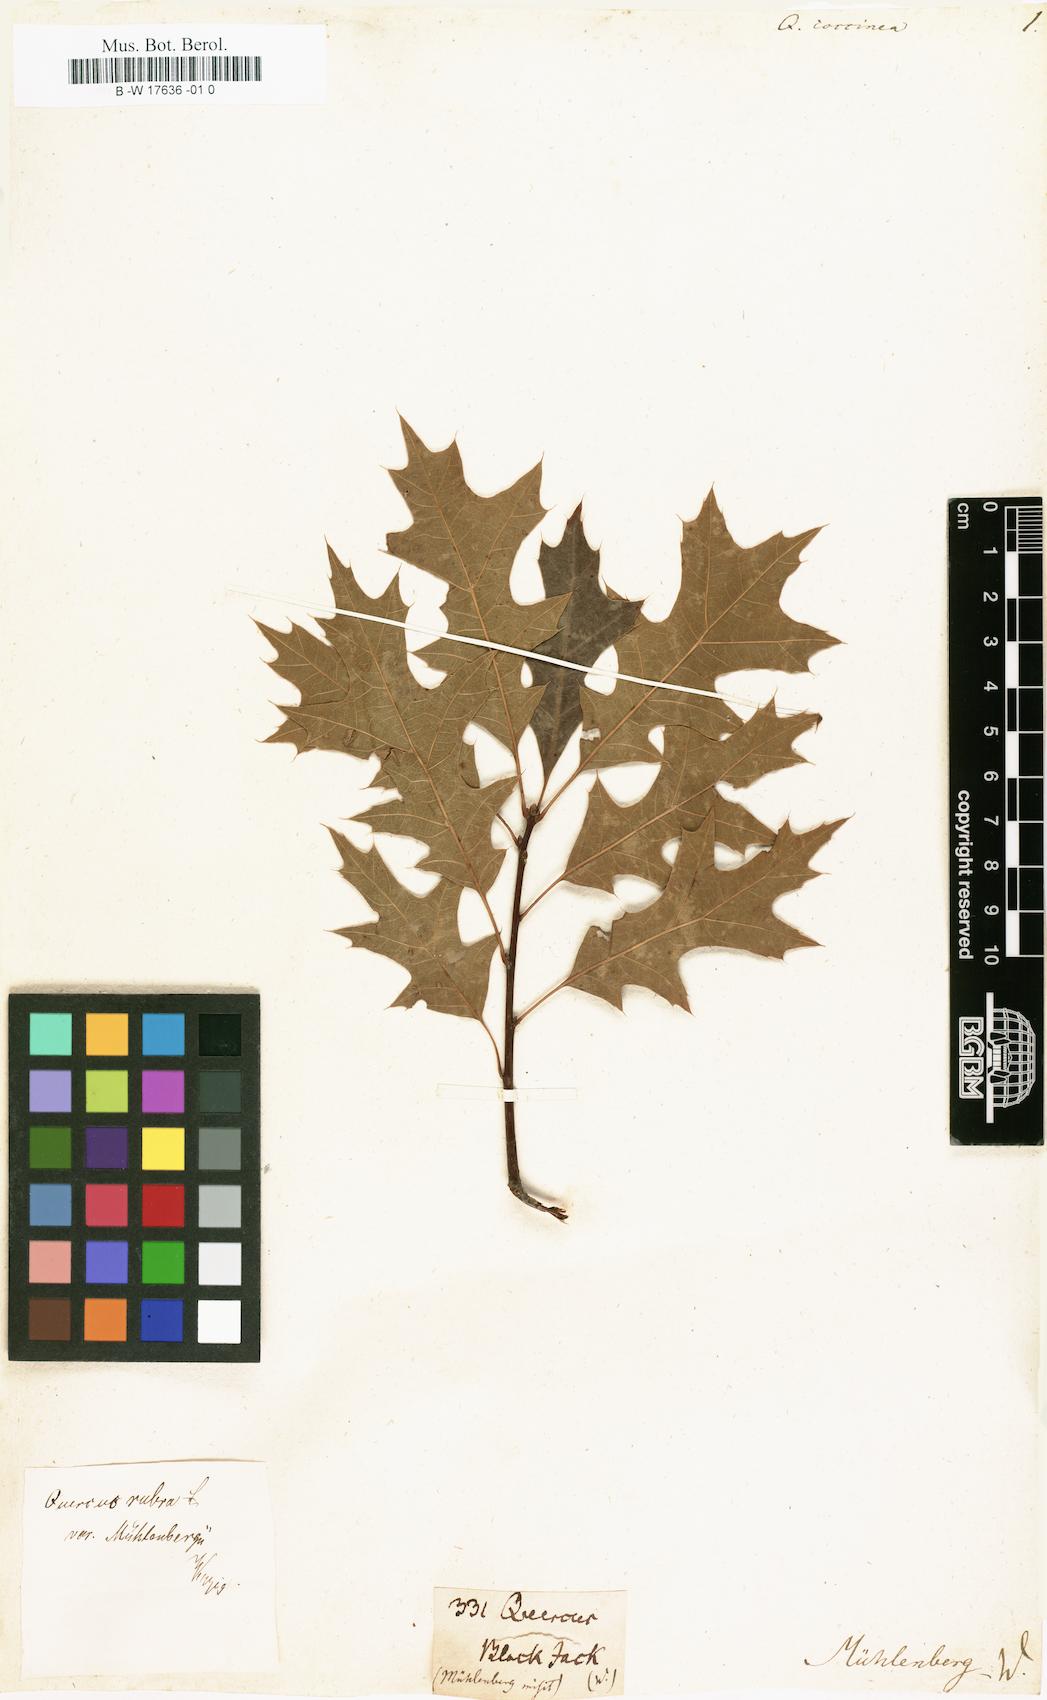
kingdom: Plantae
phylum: Tracheophyta
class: Magnoliopsida
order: Fagales
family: Fagaceae
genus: Quercus
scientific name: Quercus coccinea
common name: Scarlet oak
